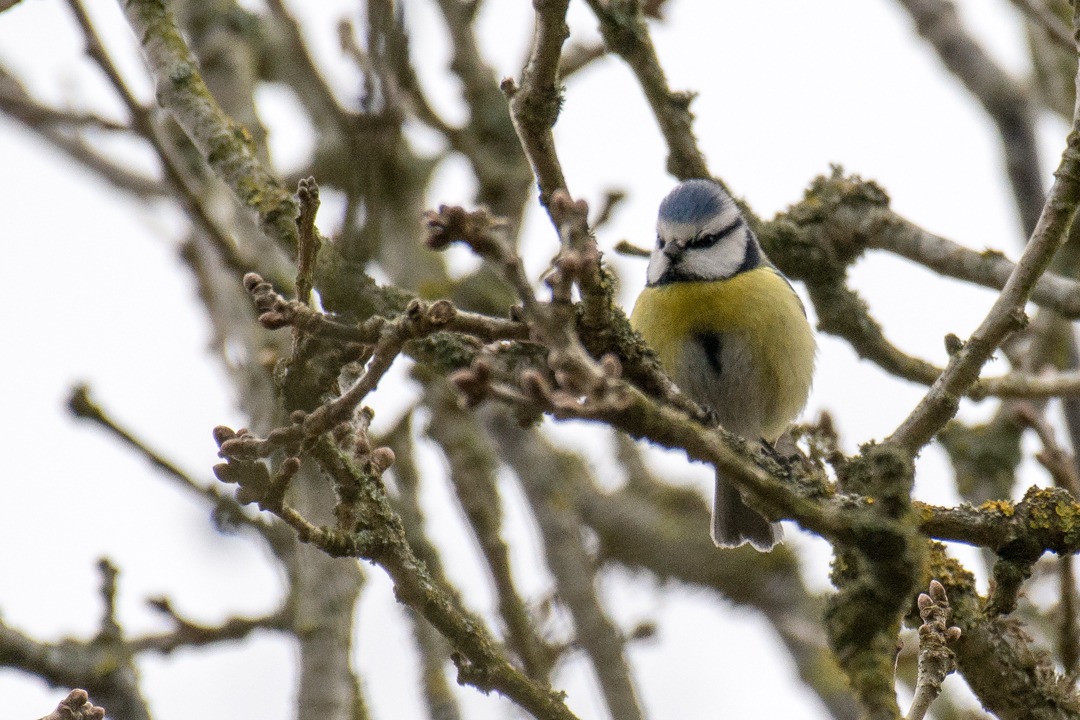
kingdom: Animalia
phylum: Chordata
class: Aves
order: Passeriformes
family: Paridae
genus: Cyanistes
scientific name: Cyanistes caeruleus
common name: Blåmejse
